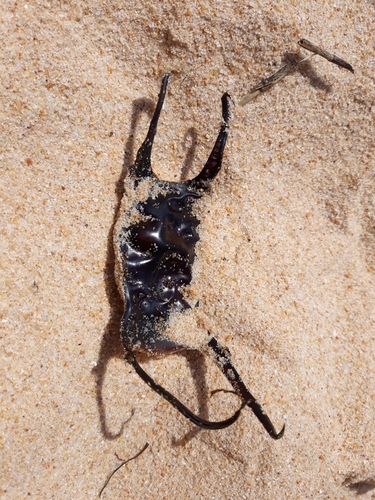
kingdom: Animalia
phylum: Chordata
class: Elasmobranchii
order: Rajiformes
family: Rajidae
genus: Leucoraja
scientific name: Leucoraja naevus
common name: Cuckoo ray
